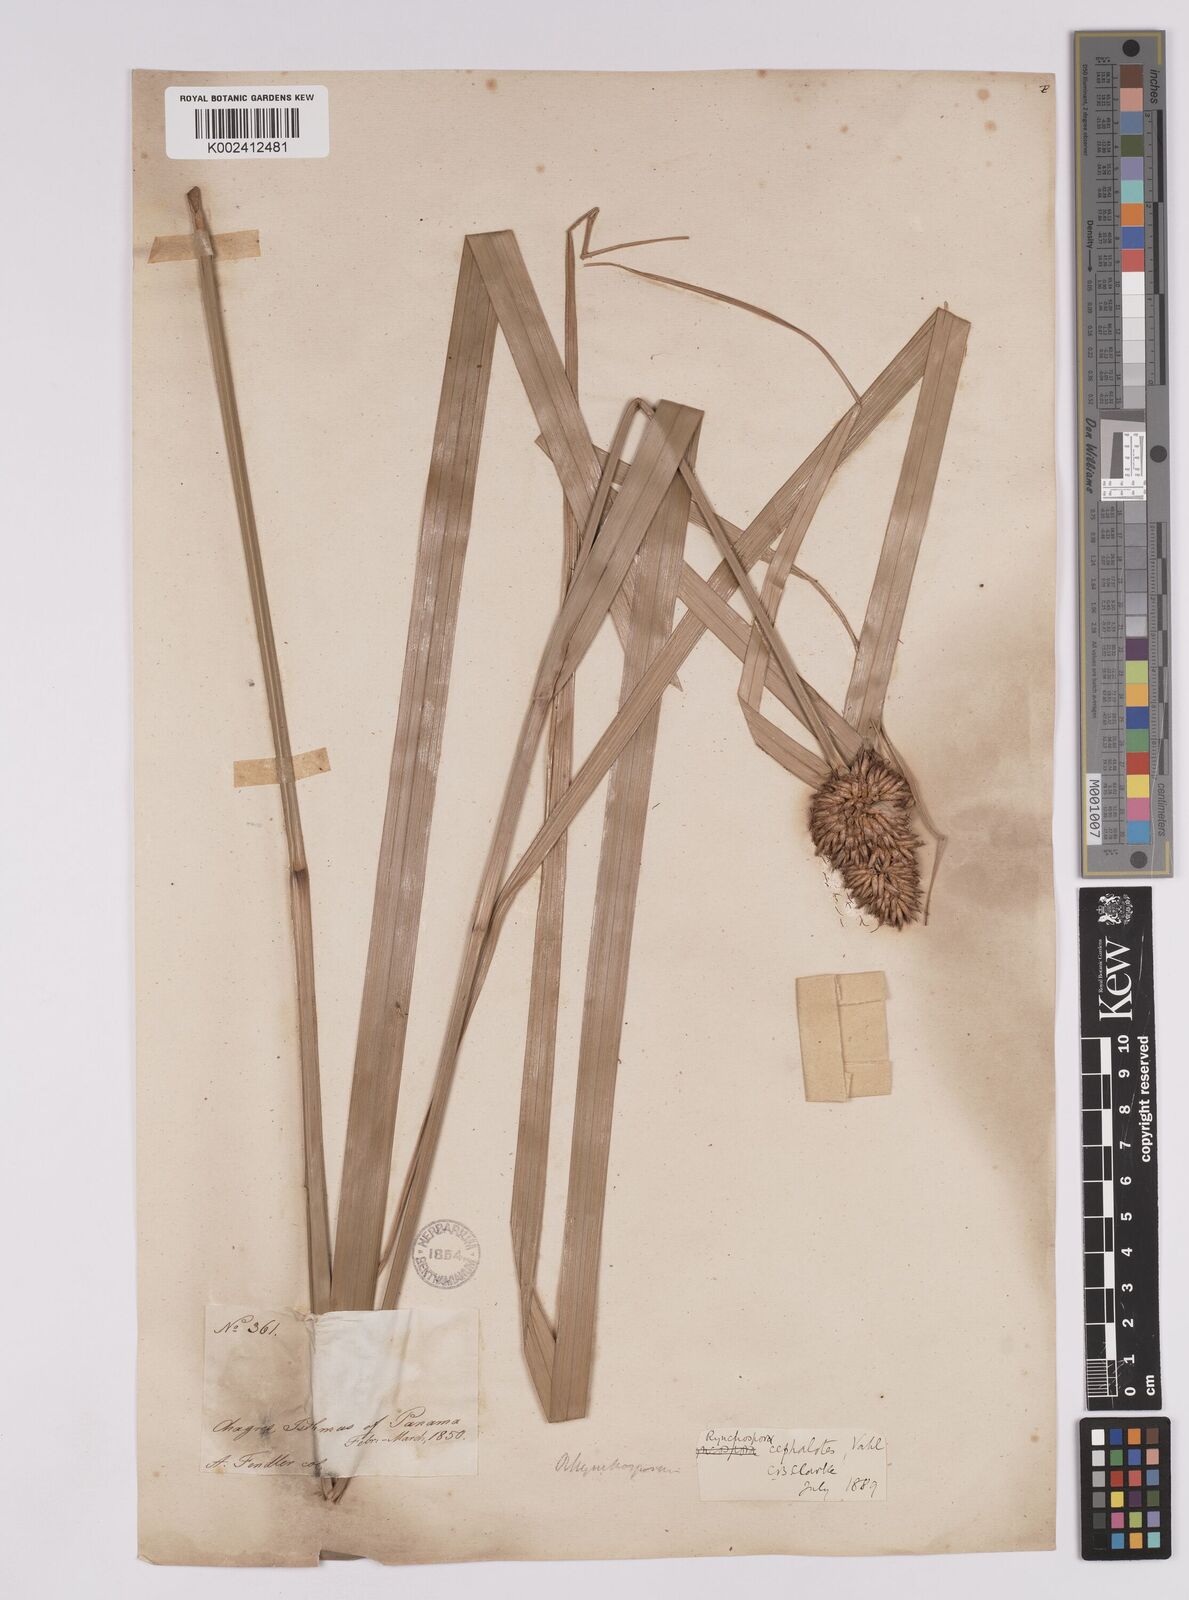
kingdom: Plantae
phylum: Tracheophyta
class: Liliopsida
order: Poales
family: Cyperaceae
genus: Rhynchospora
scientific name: Rhynchospora cephalotes
